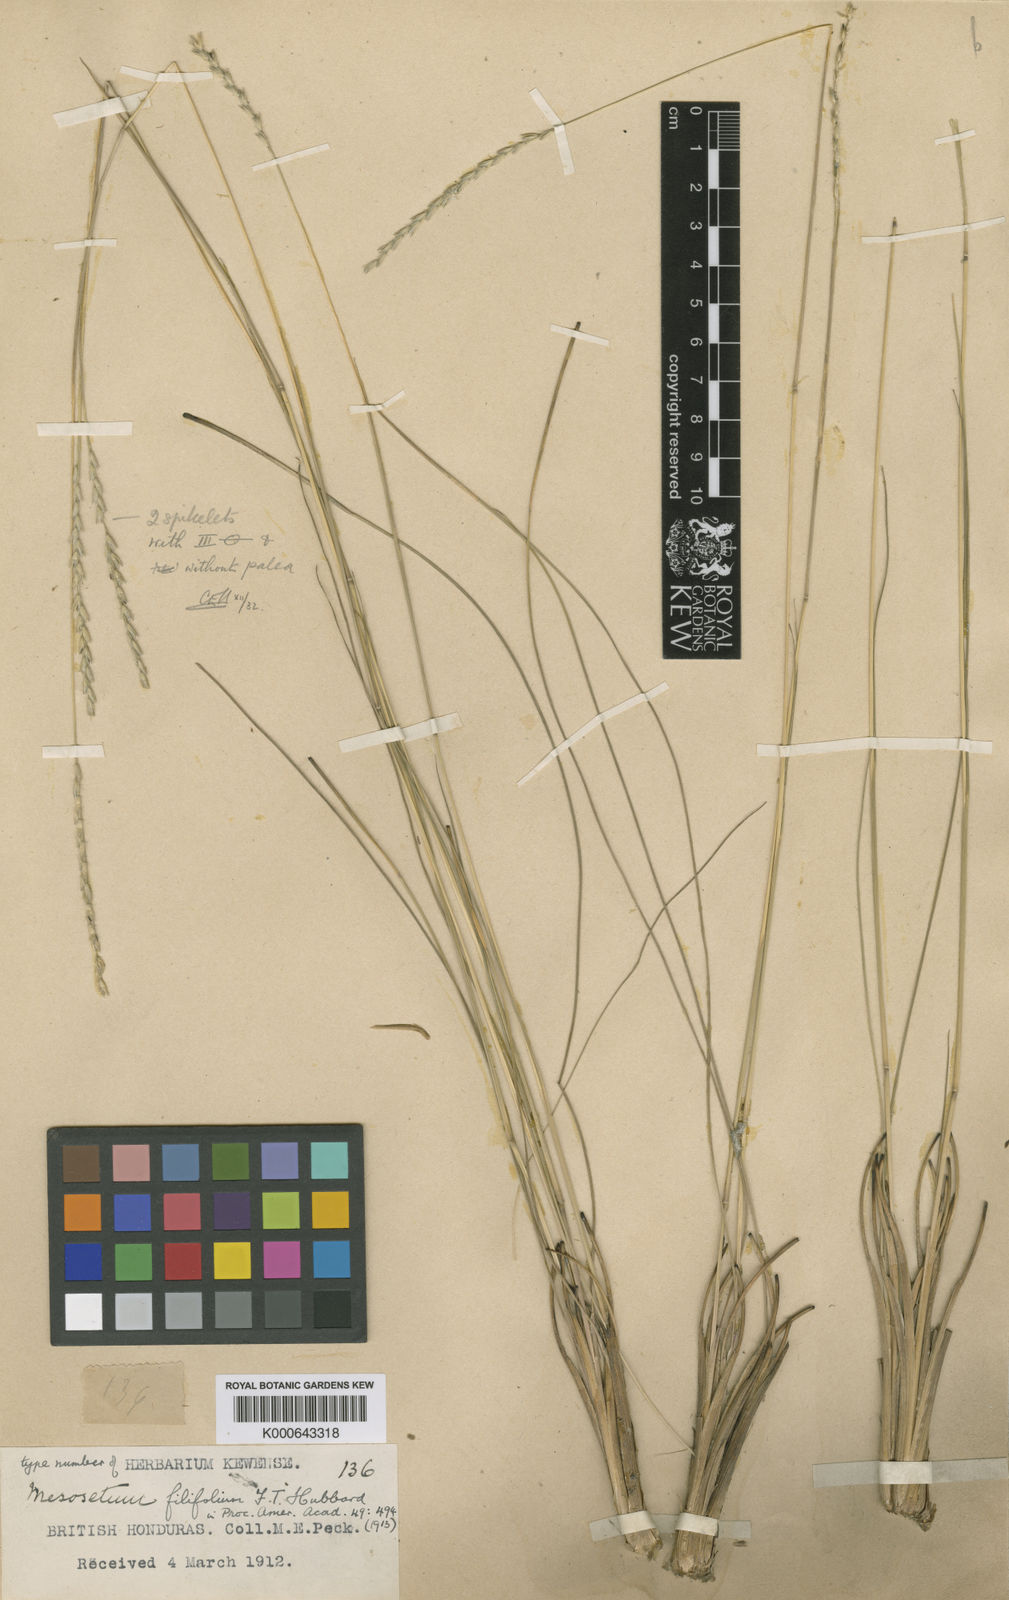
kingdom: Plantae
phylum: Tracheophyta
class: Liliopsida
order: Poales
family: Poaceae
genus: Mesosetum
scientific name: Mesosetum filifolium
